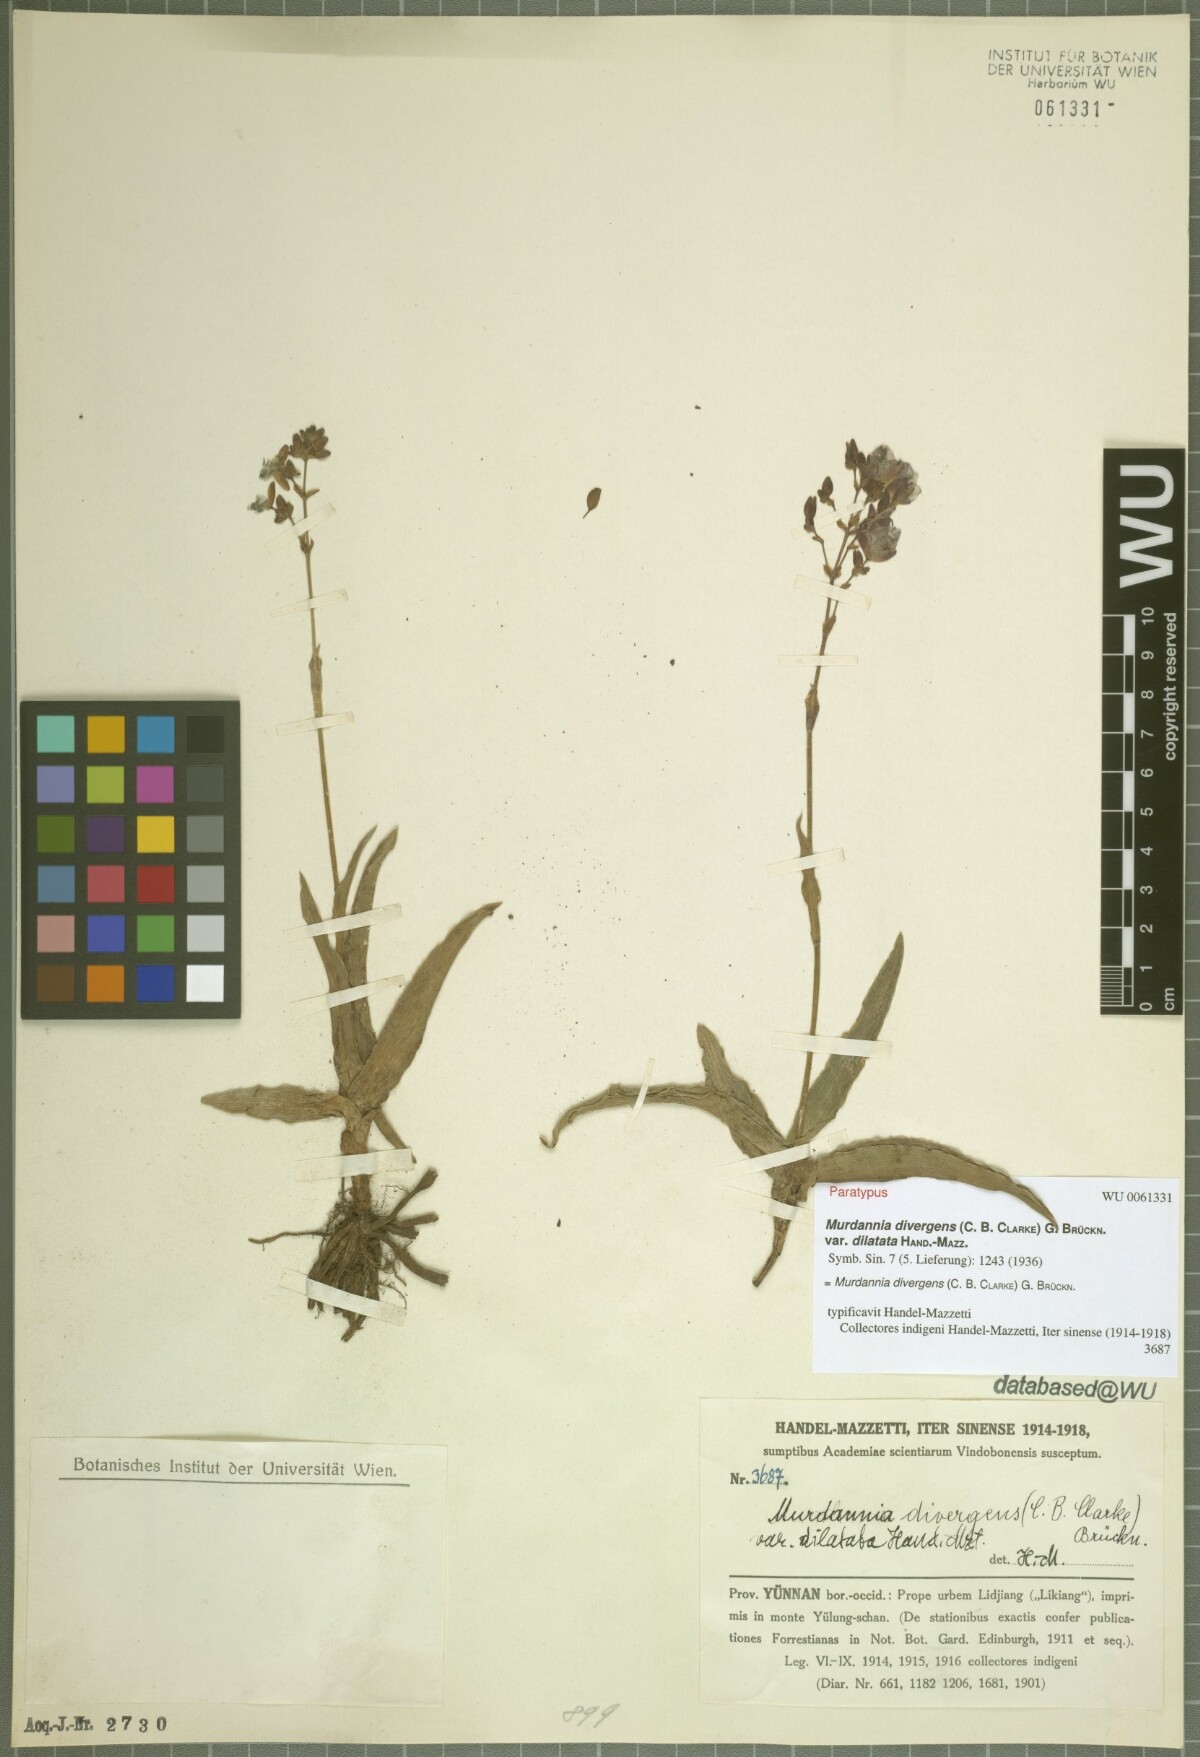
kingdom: Plantae
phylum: Tracheophyta
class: Liliopsida
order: Commelinales
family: Commelinaceae
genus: Murdannia
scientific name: Murdannia divergens
